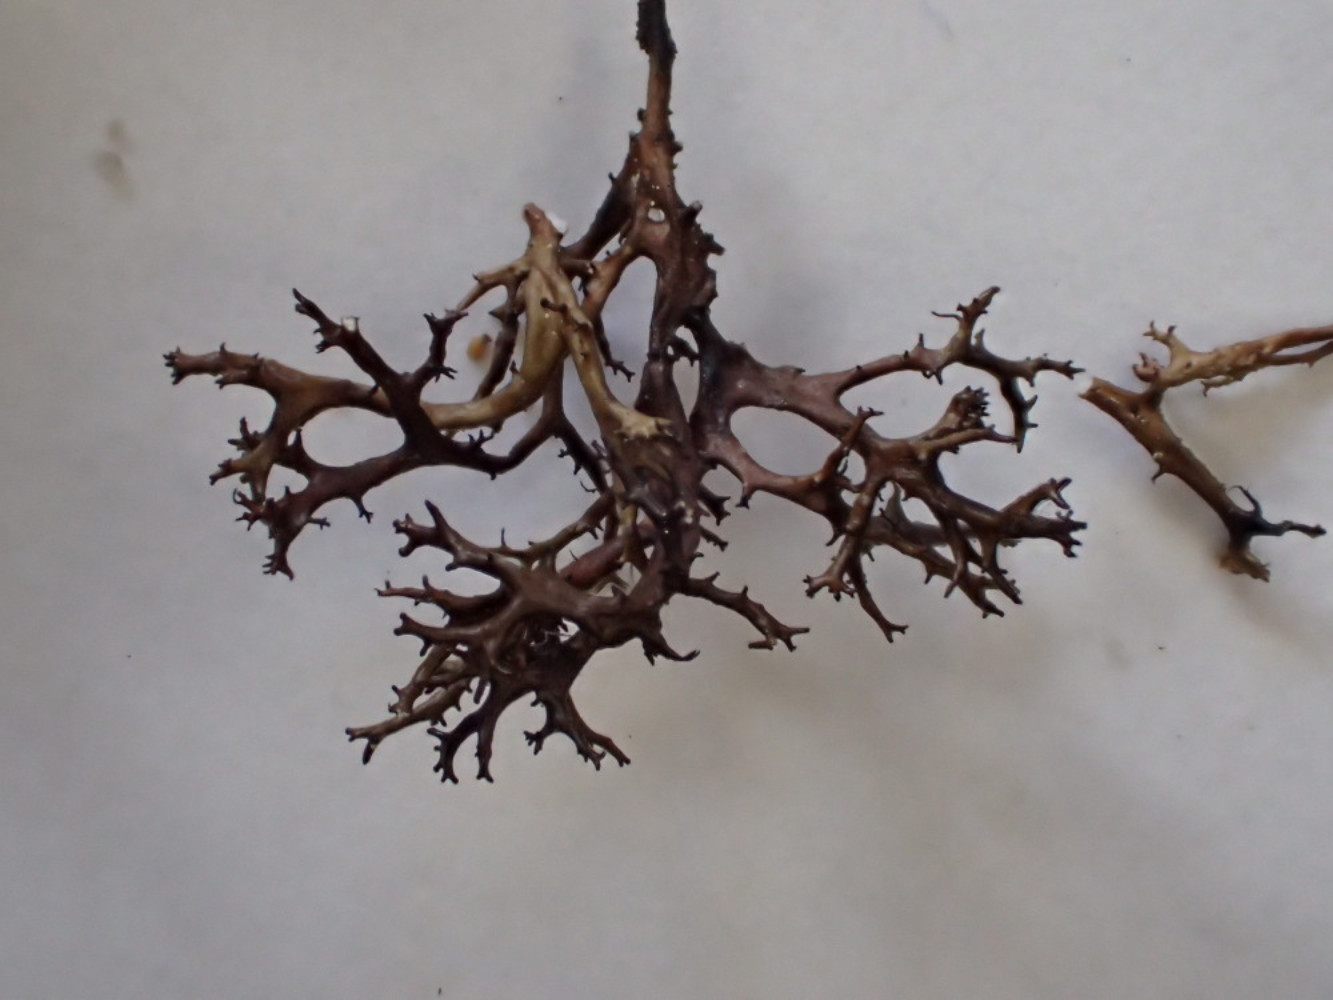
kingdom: Fungi
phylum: Ascomycota
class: Lecanoromycetes
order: Lecanorales
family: Parmeliaceae
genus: Cetraria
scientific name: Cetraria muricata
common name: tue-tjørnelav
